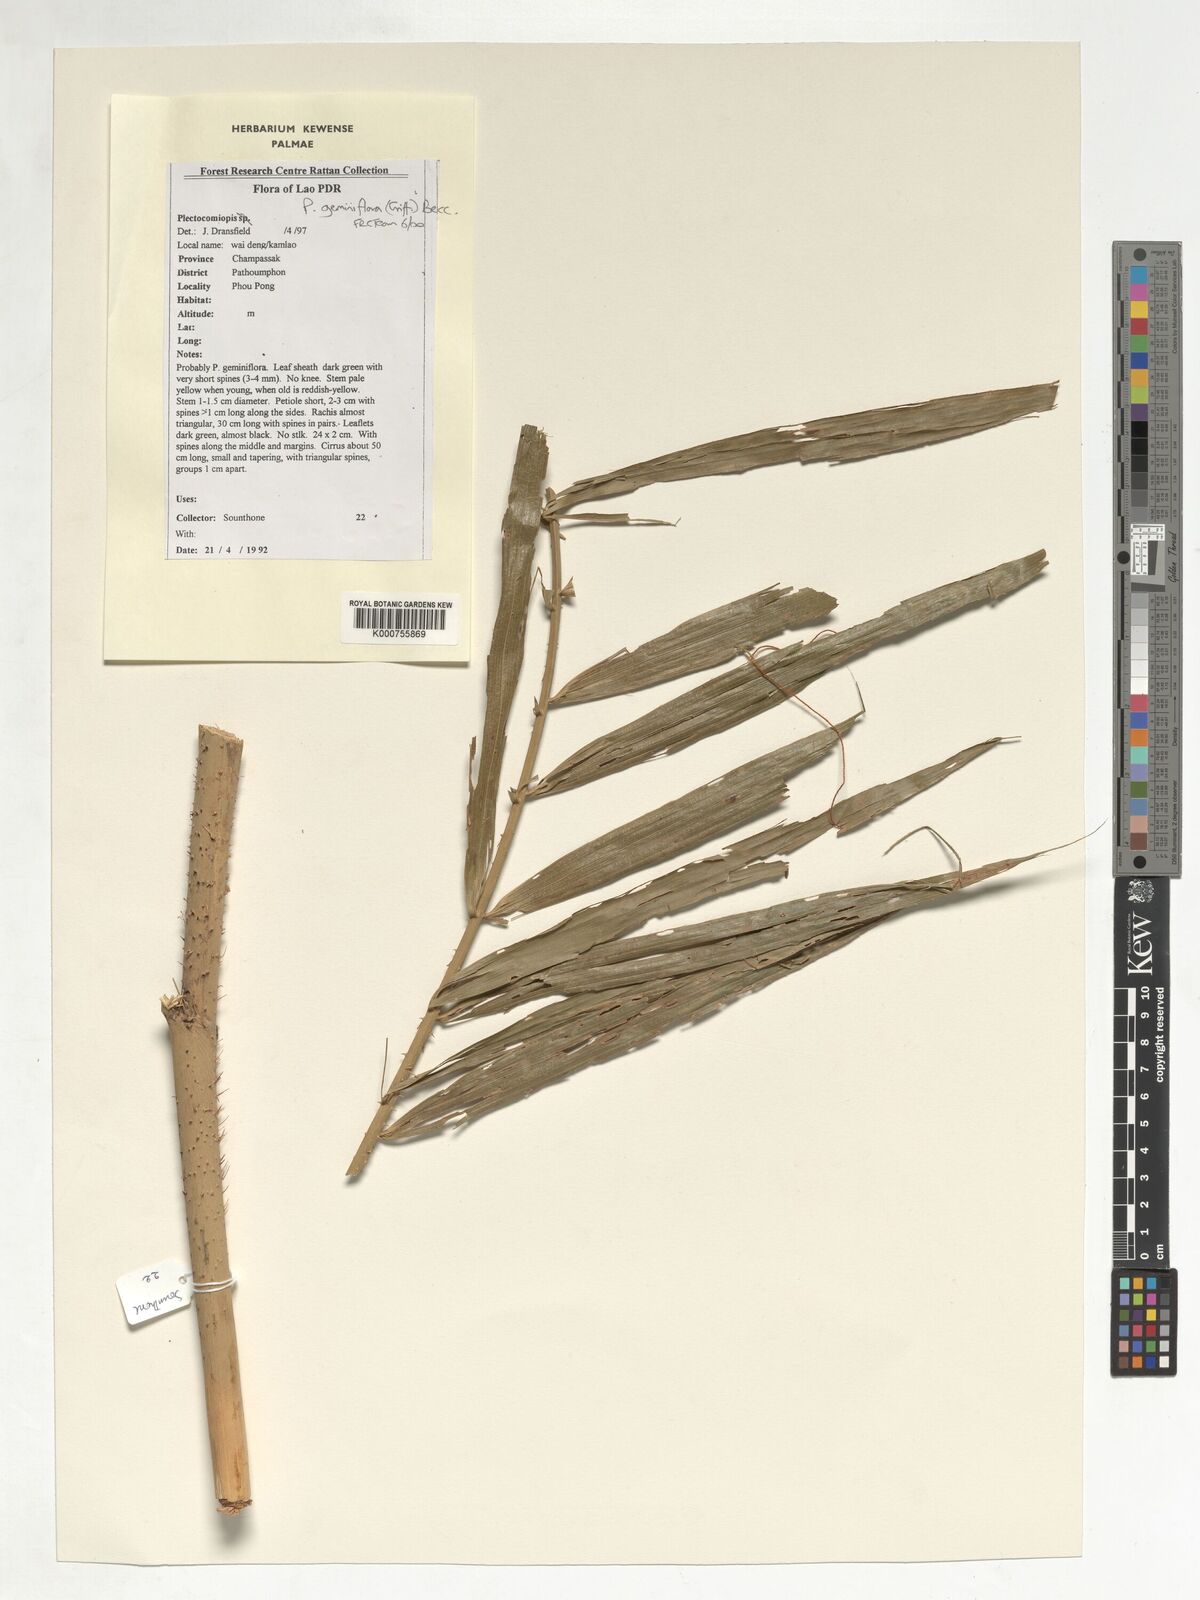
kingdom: Plantae
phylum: Tracheophyta
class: Liliopsida
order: Arecales
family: Arecaceae
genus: Plectocomiopsis
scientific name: Plectocomiopsis geminiflora
